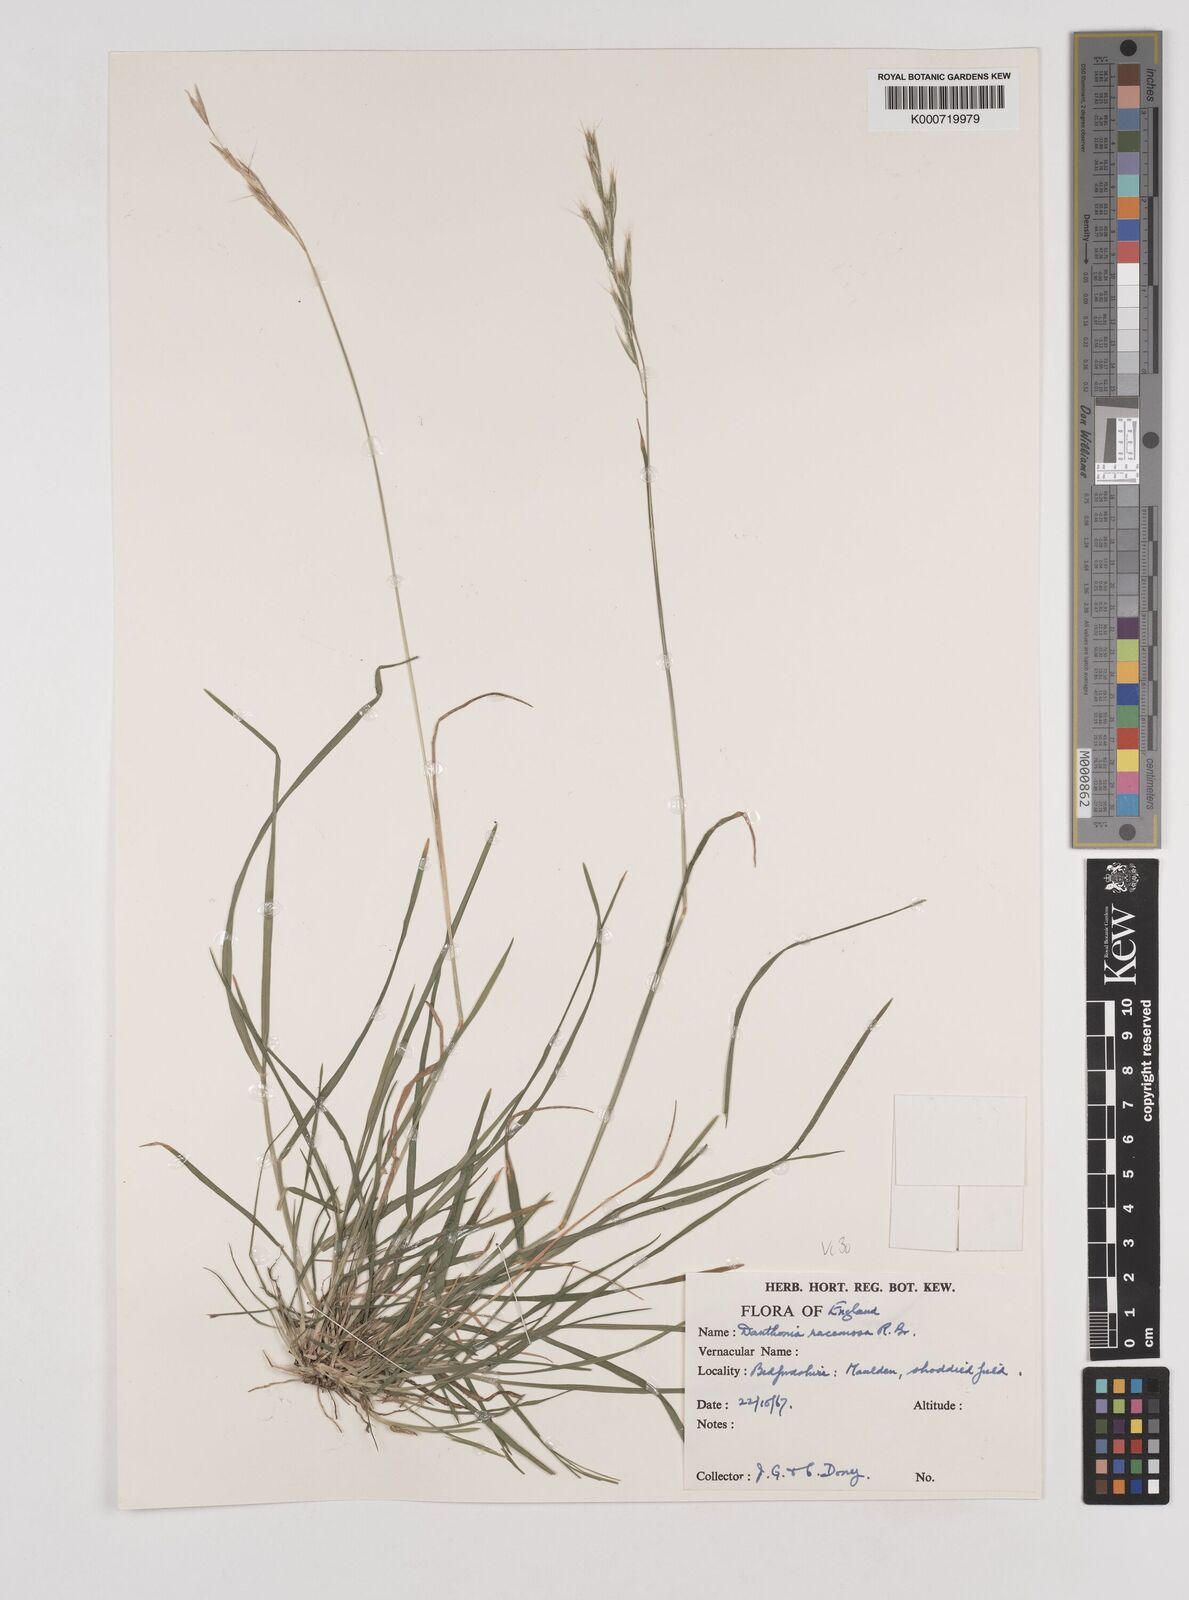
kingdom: Plantae
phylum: Tracheophyta
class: Liliopsida
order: Poales
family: Poaceae
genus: Rytidosperma
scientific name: Rytidosperma racemosum
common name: Wallaby-grass
